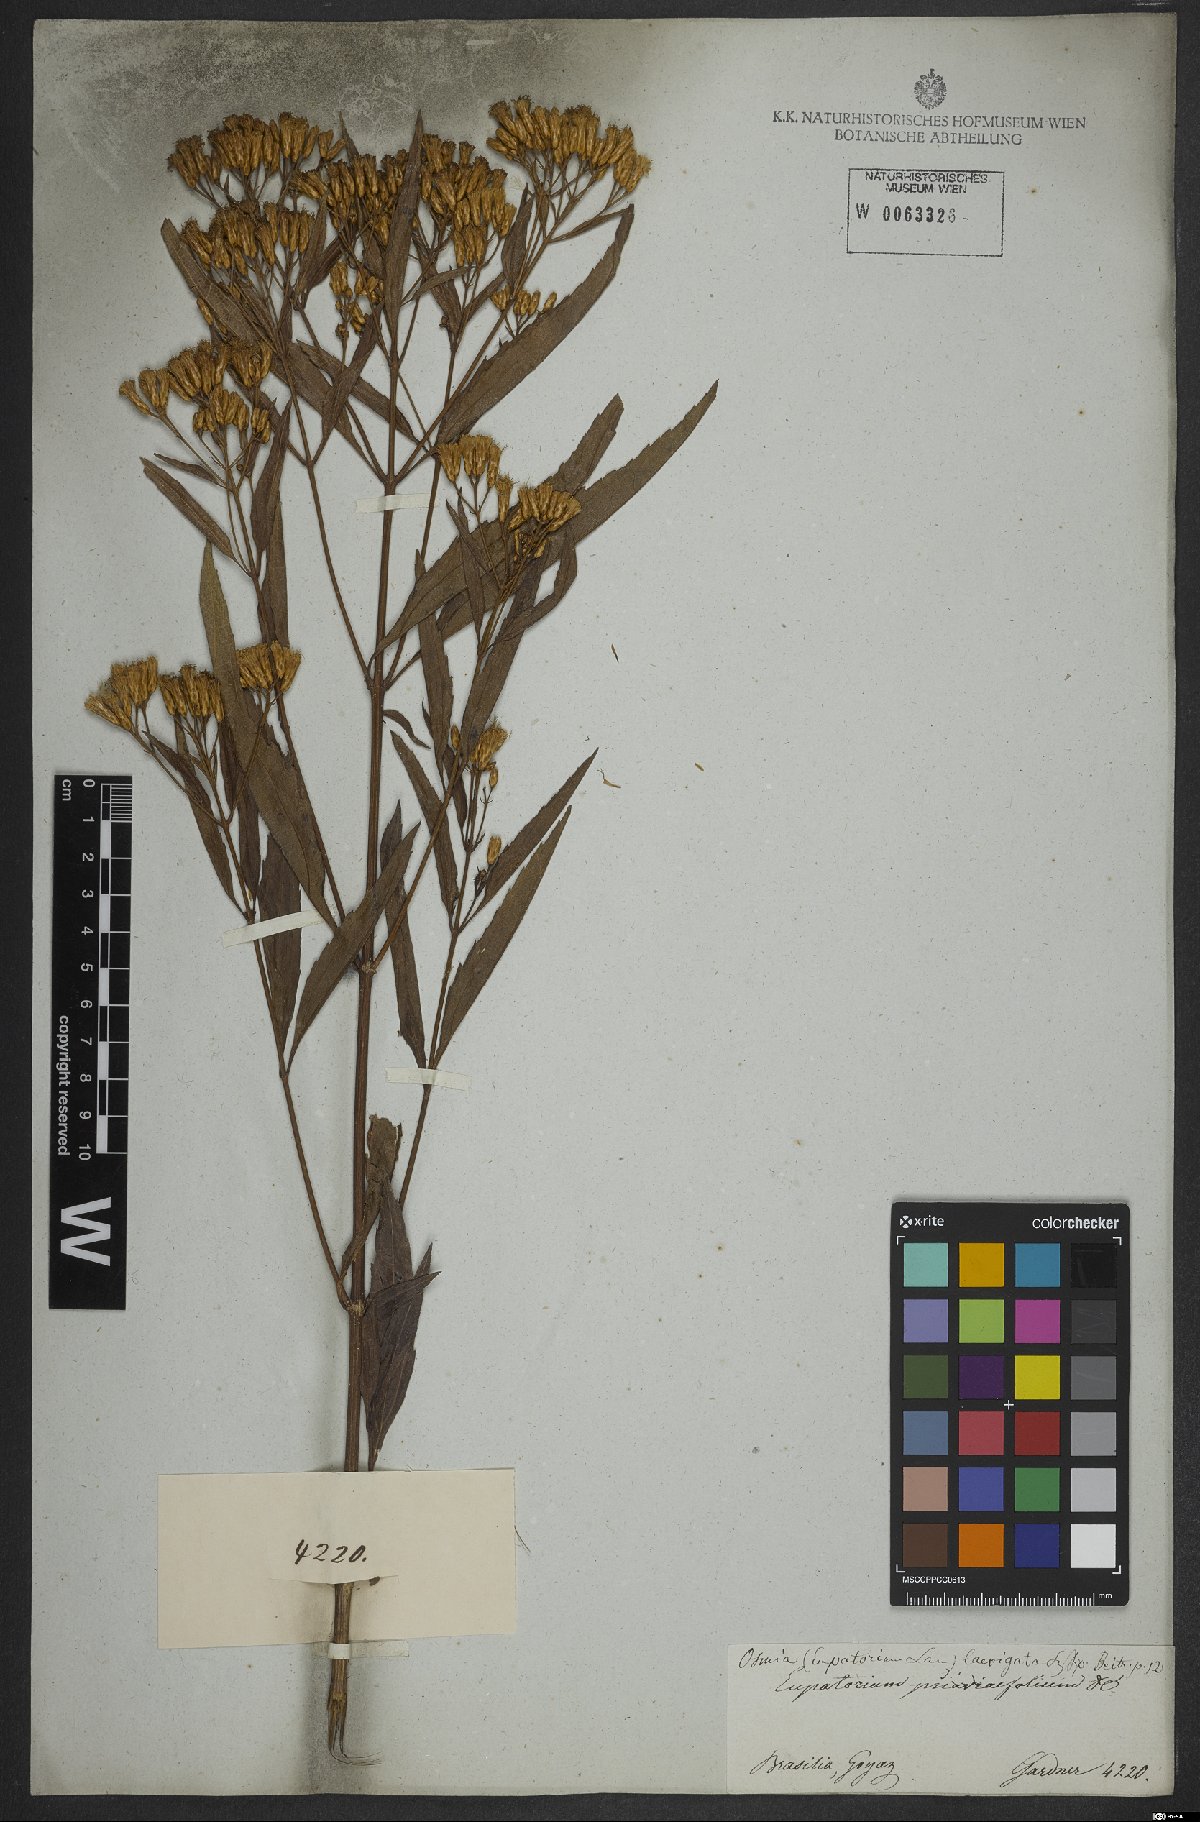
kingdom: Plantae
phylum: Tracheophyta
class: Magnoliopsida
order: Asterales
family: Asteraceae
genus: Eupatorium
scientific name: Eupatorium laevigatum
